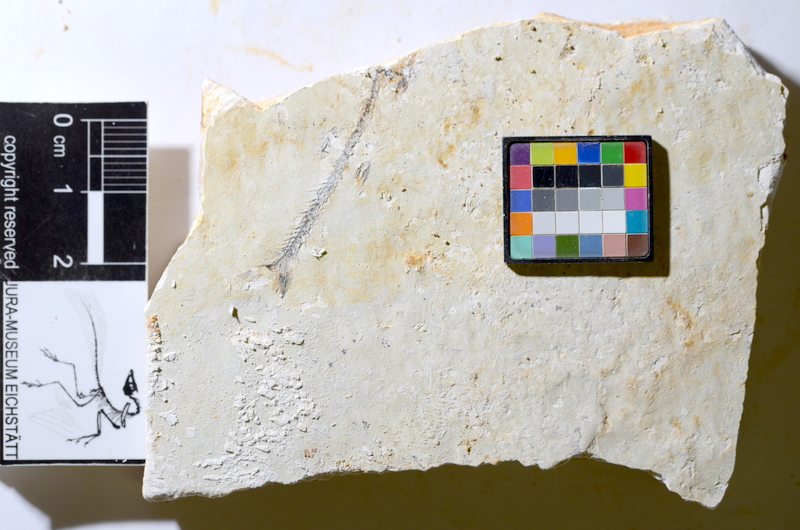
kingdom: Animalia
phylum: Chordata
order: Salmoniformes
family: Orthogonikleithridae
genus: Orthogonikleithrus
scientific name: Orthogonikleithrus hoelli
